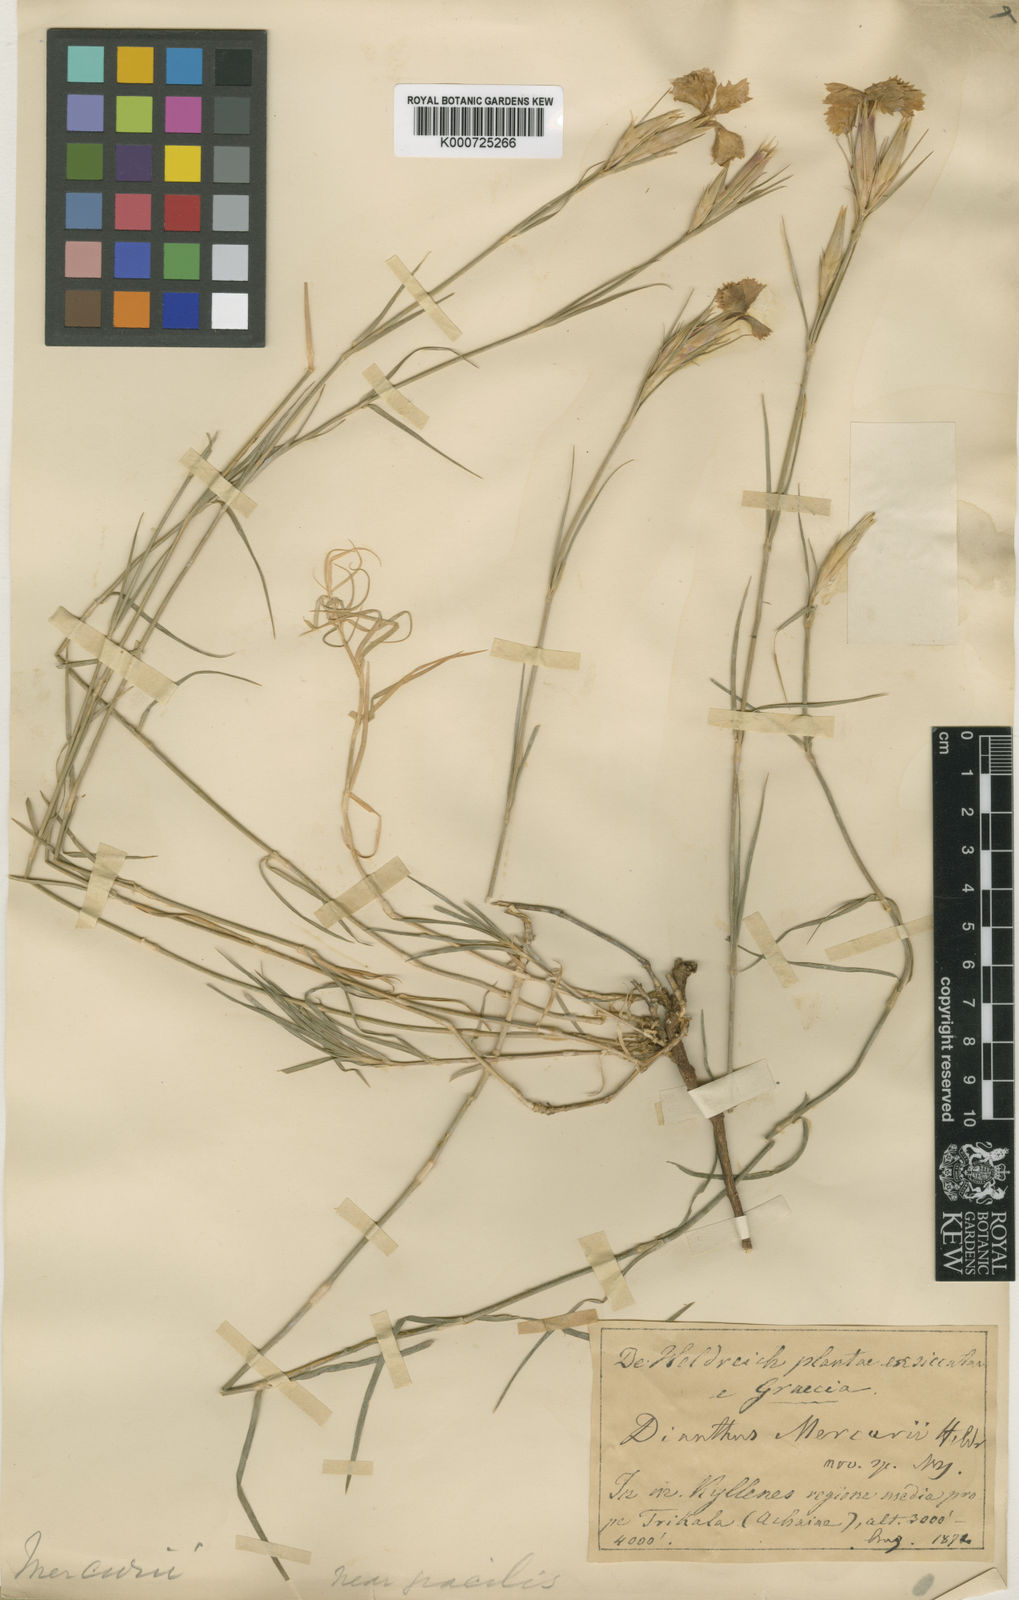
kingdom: Plantae
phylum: Tracheophyta
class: Magnoliopsida
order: Caryophyllales
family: Caryophyllaceae
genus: Dianthus
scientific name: Dianthus mercurii
